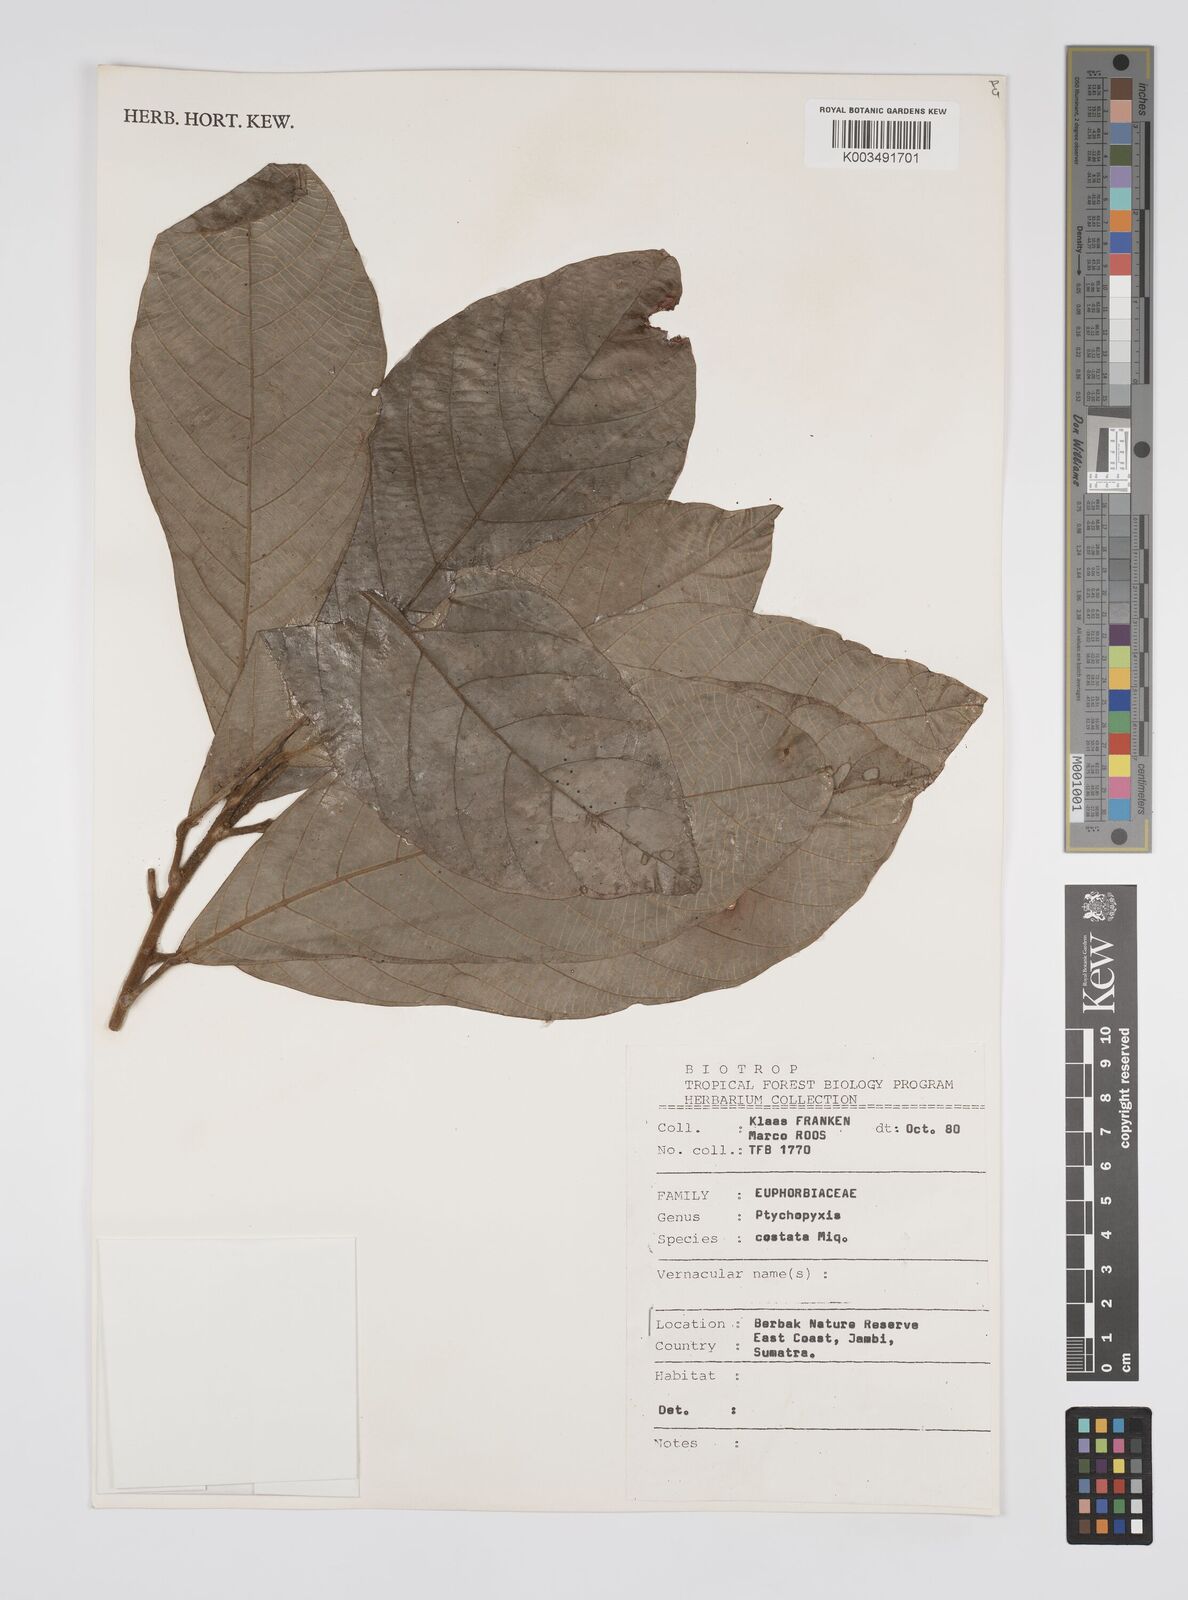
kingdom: Plantae
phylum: Tracheophyta
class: Magnoliopsida
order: Malpighiales
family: Euphorbiaceae
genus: Ptychopyxis
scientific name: Ptychopyxis costata
